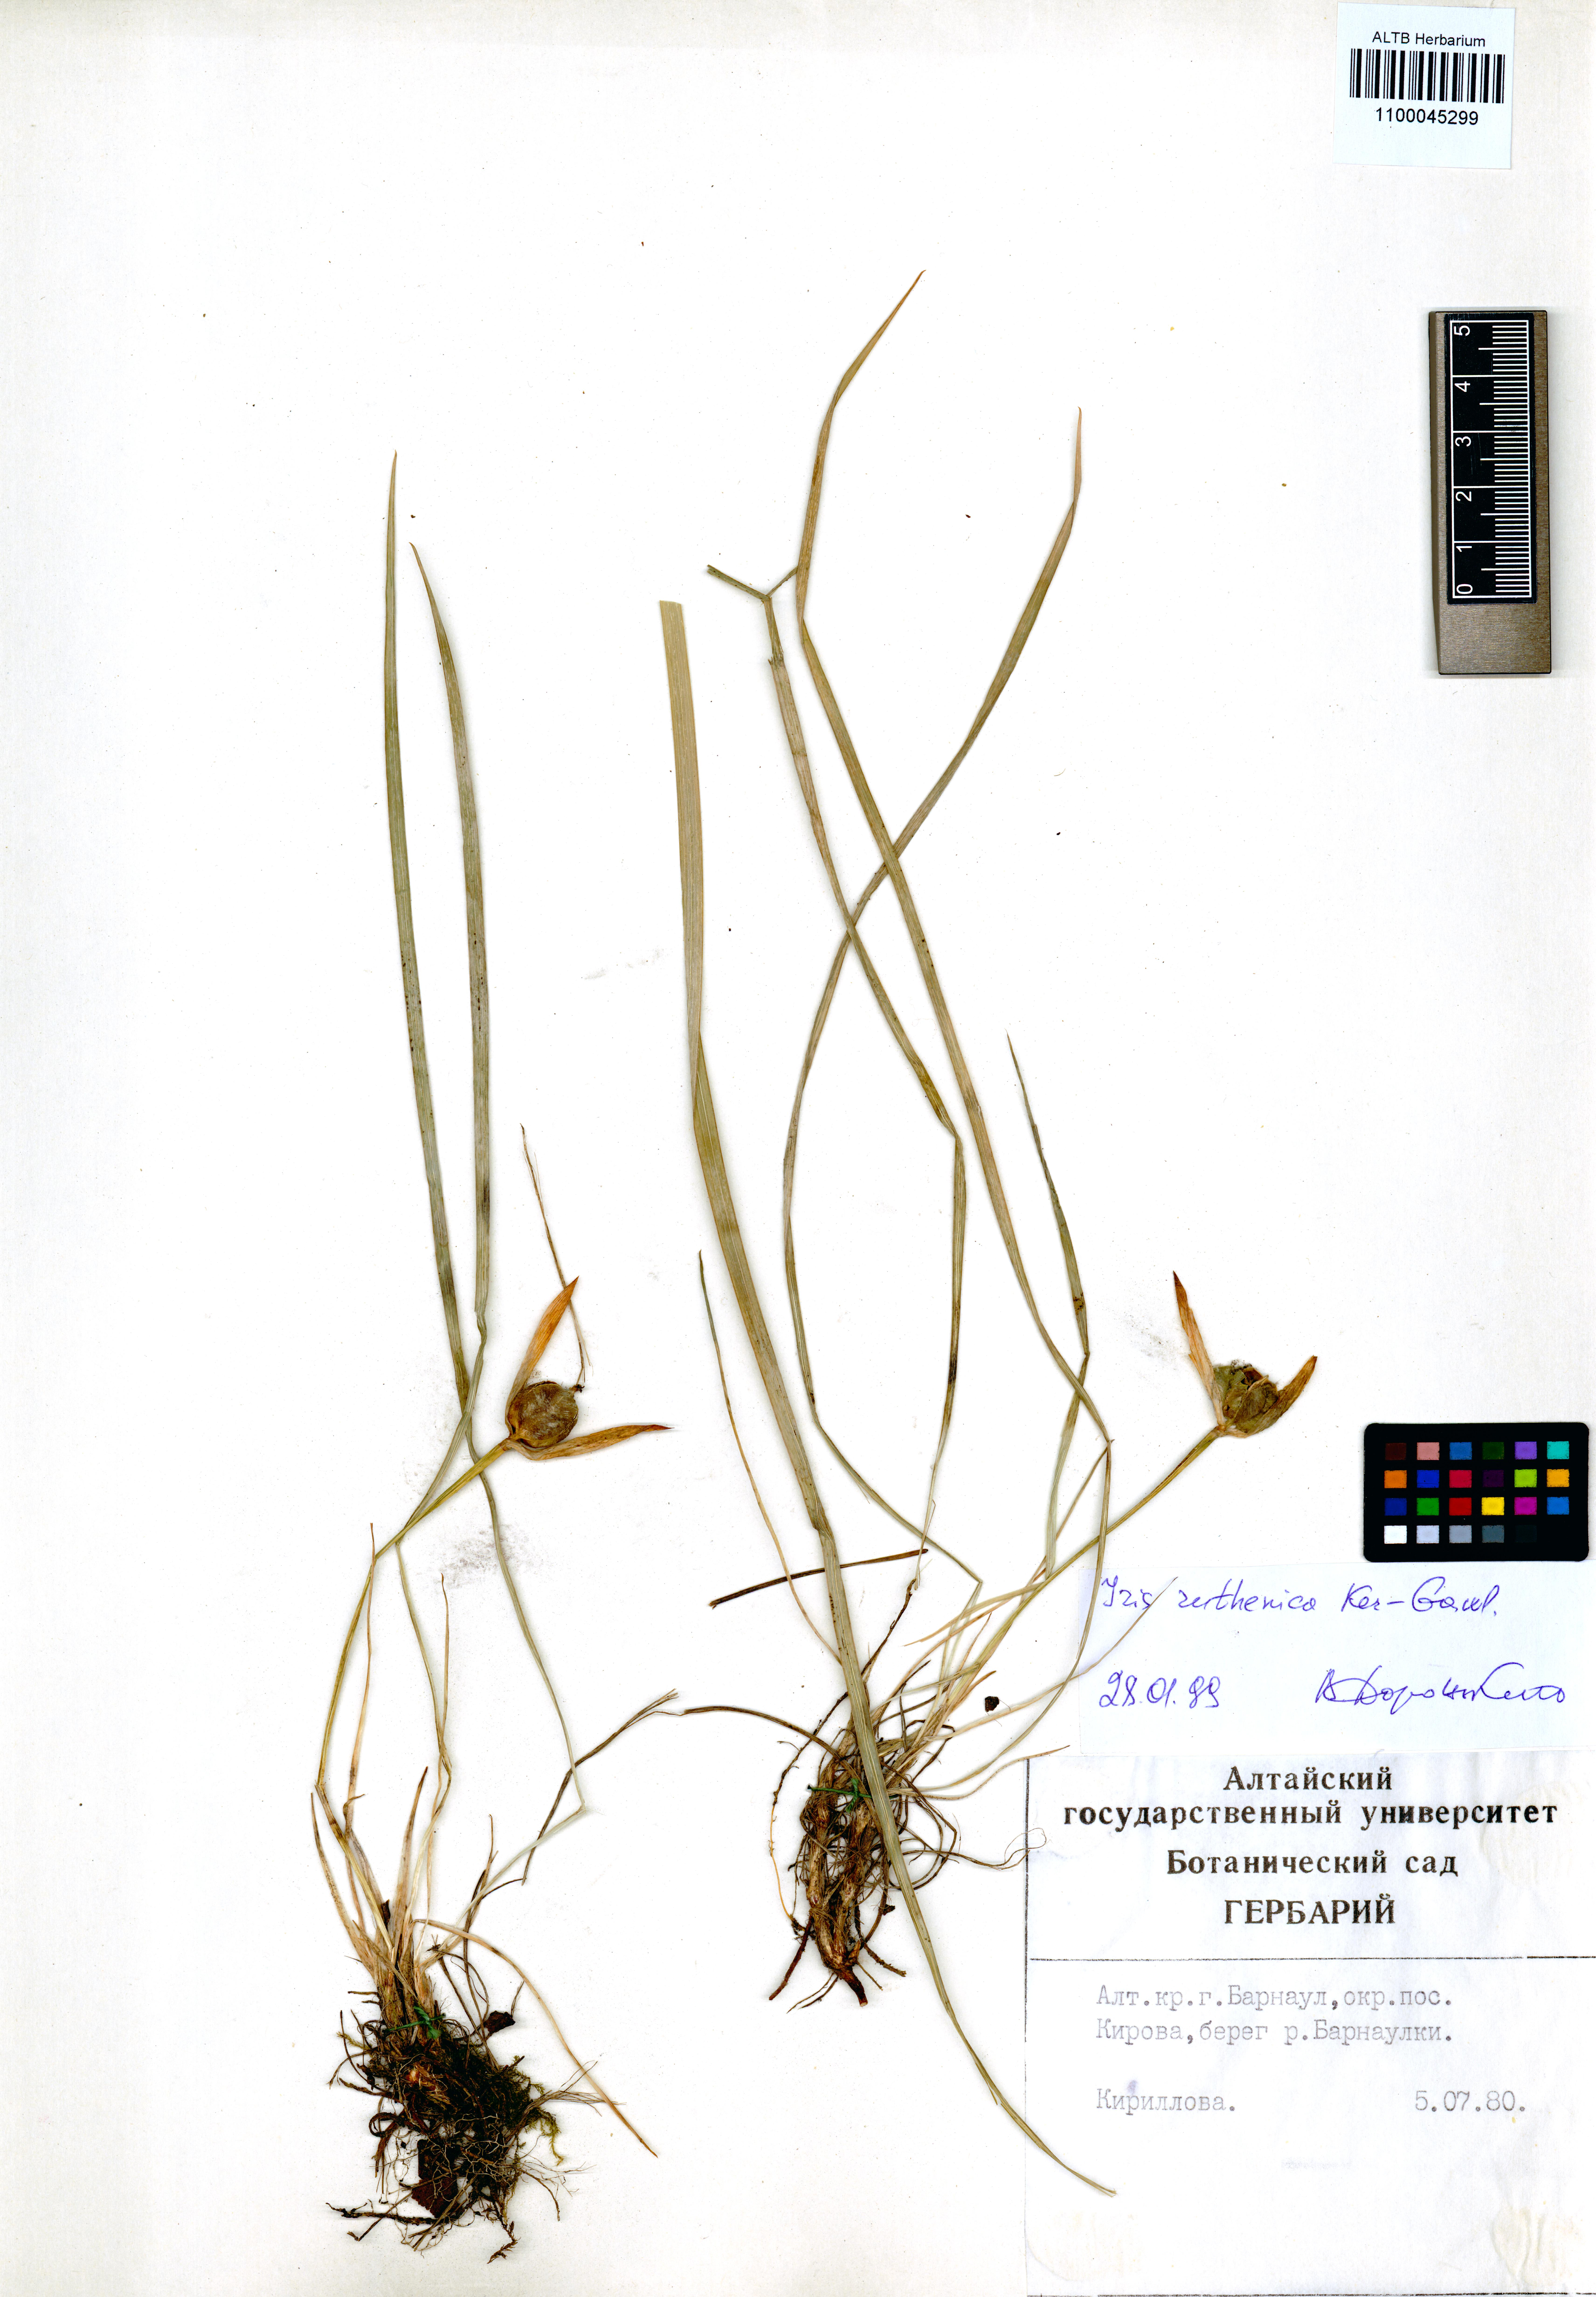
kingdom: Plantae
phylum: Tracheophyta
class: Liliopsida
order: Asparagales
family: Iridaceae
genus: Iris
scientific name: Iris ruthenica
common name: Purple-bract iris
